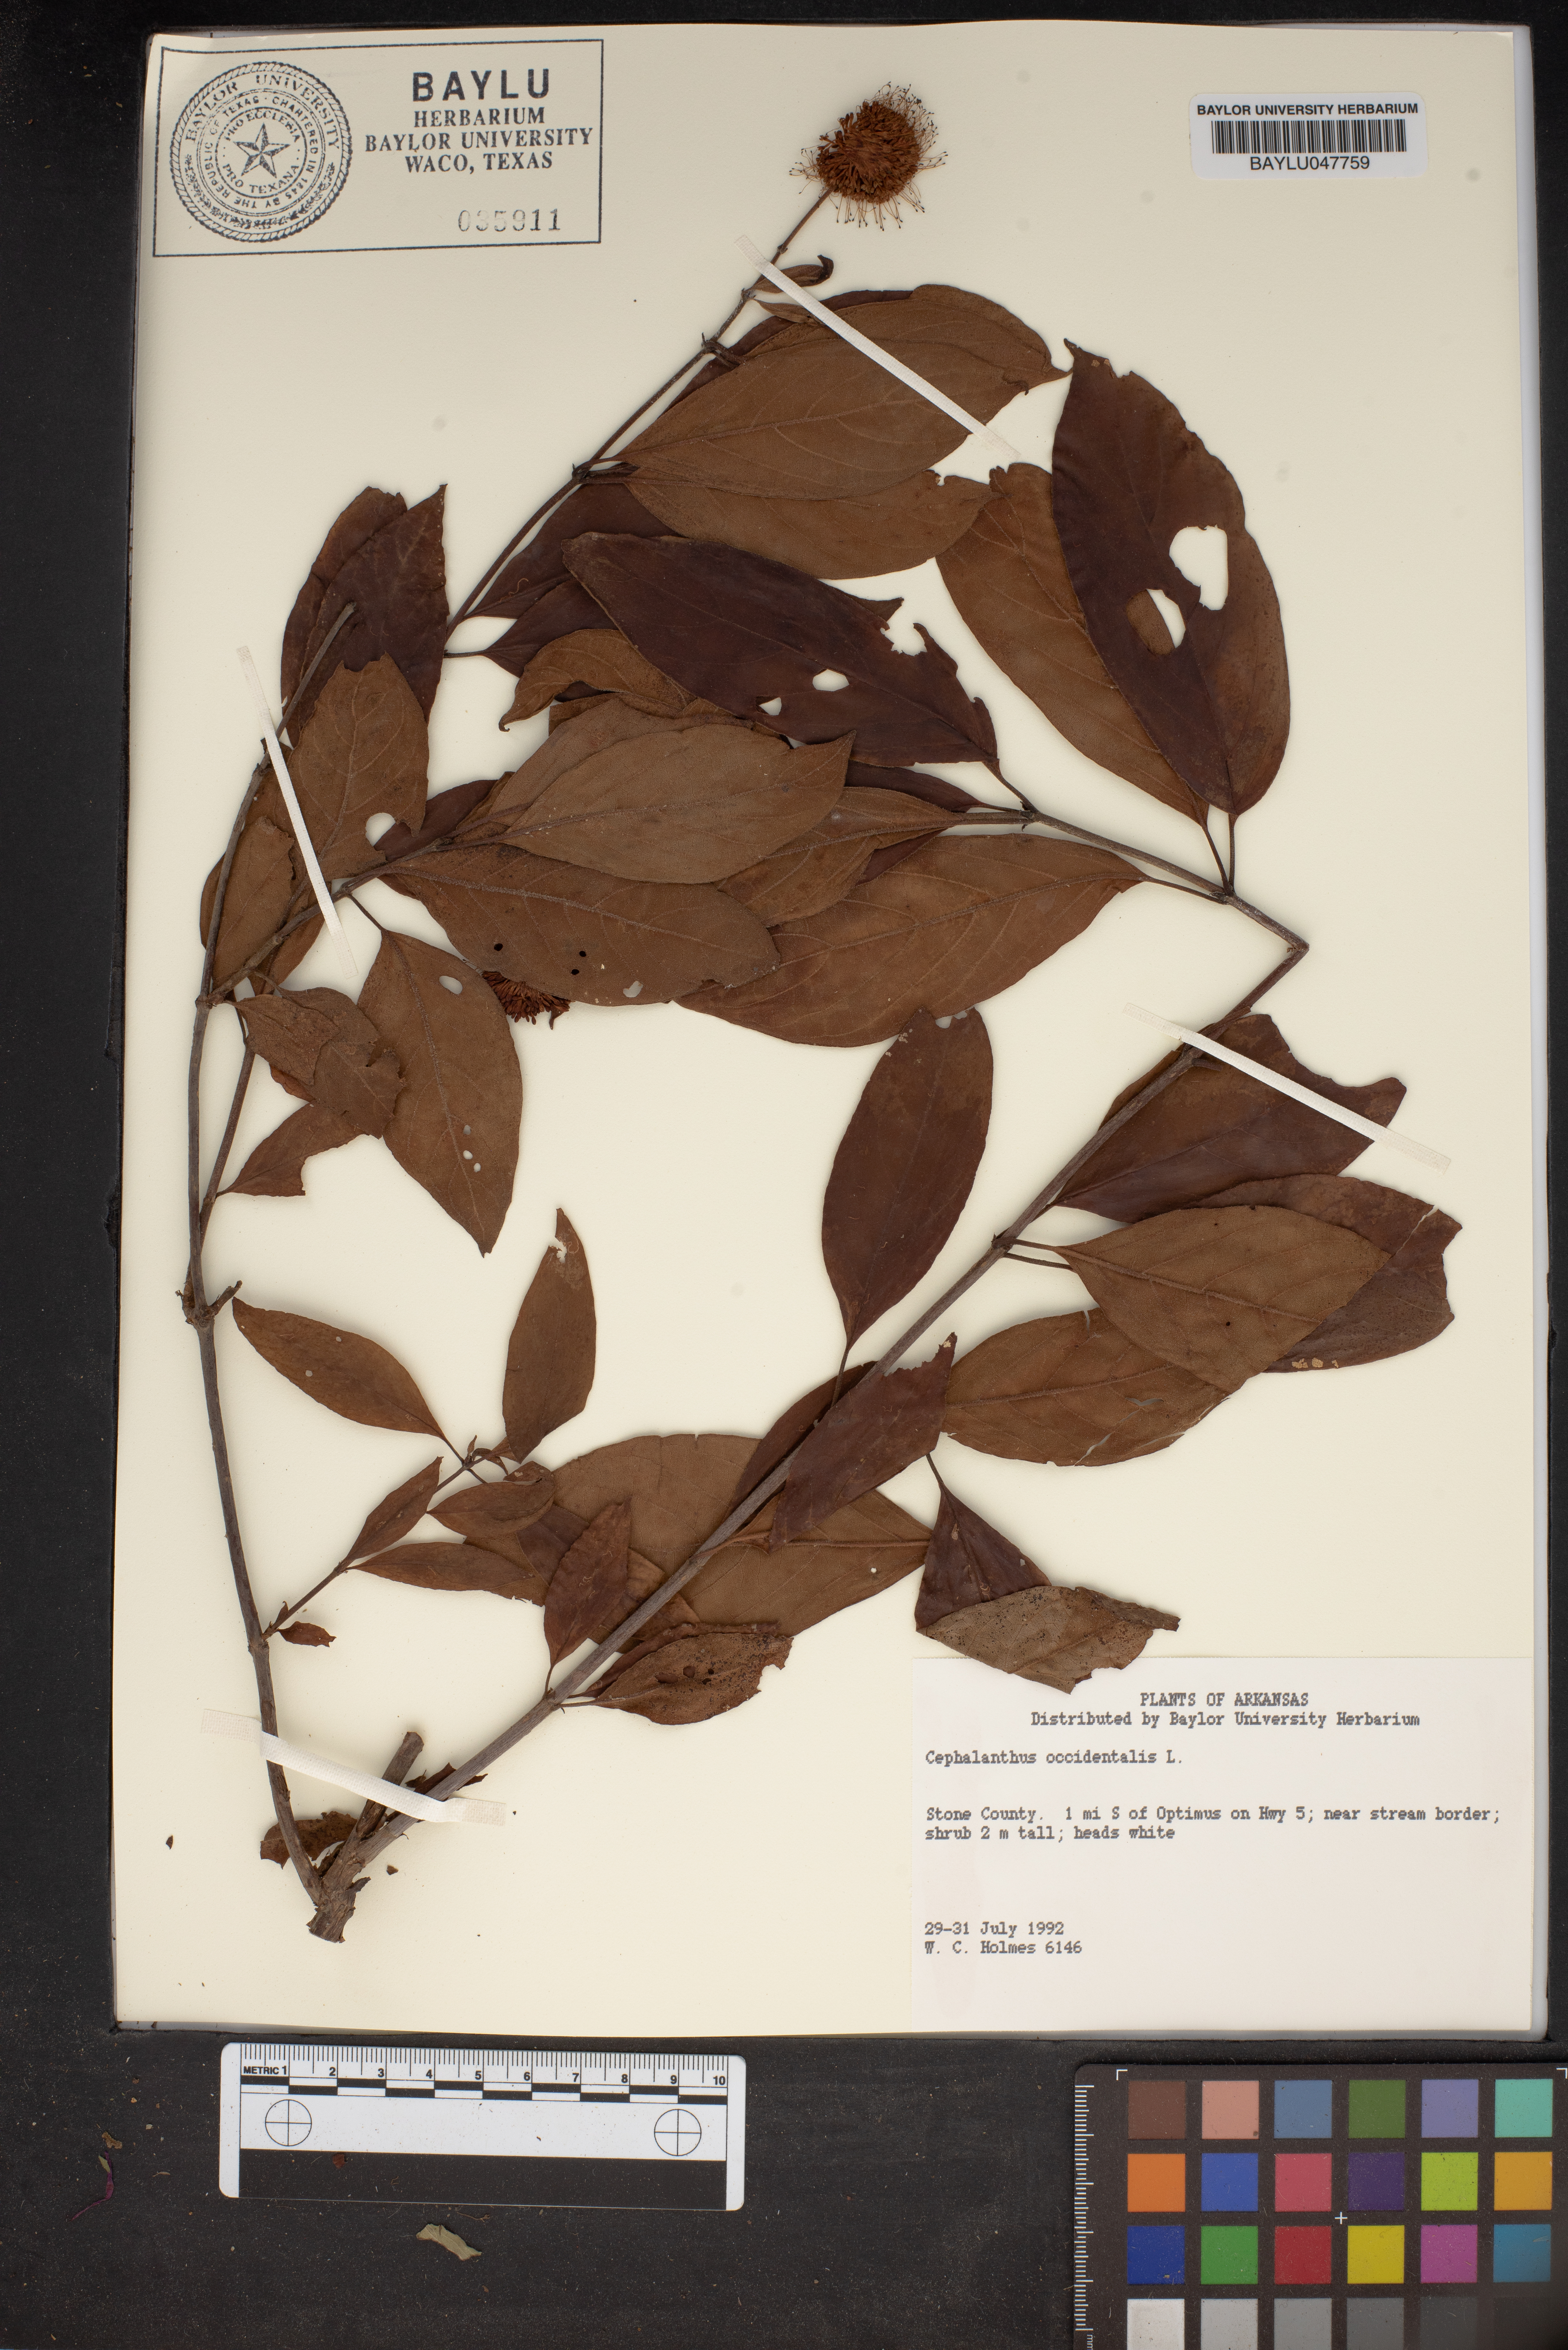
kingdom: Plantae
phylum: Tracheophyta
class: Magnoliopsida
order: Gentianales
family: Rubiaceae
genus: Cephalanthus
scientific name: Cephalanthus occidentalis
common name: Button-willow
